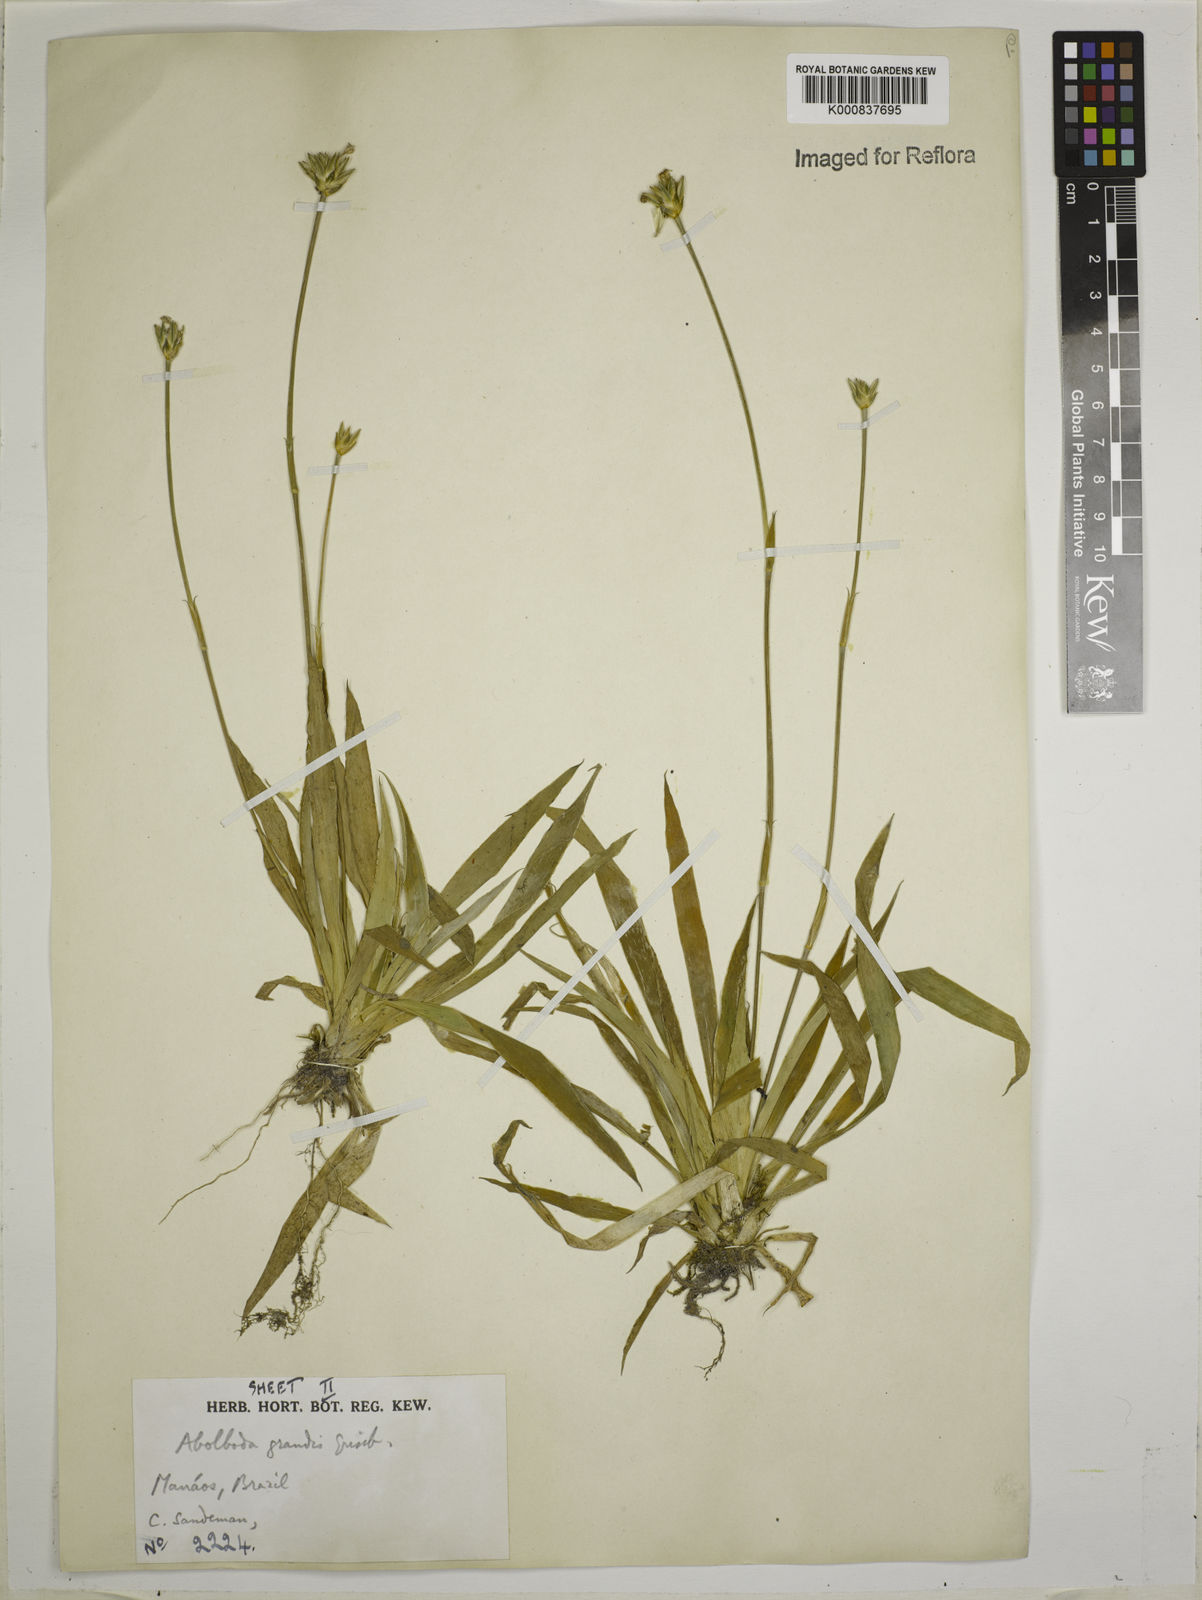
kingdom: Plantae
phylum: Tracheophyta
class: Liliopsida
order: Poales
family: Xyridaceae
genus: Abolboda
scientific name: Abolboda grandis
